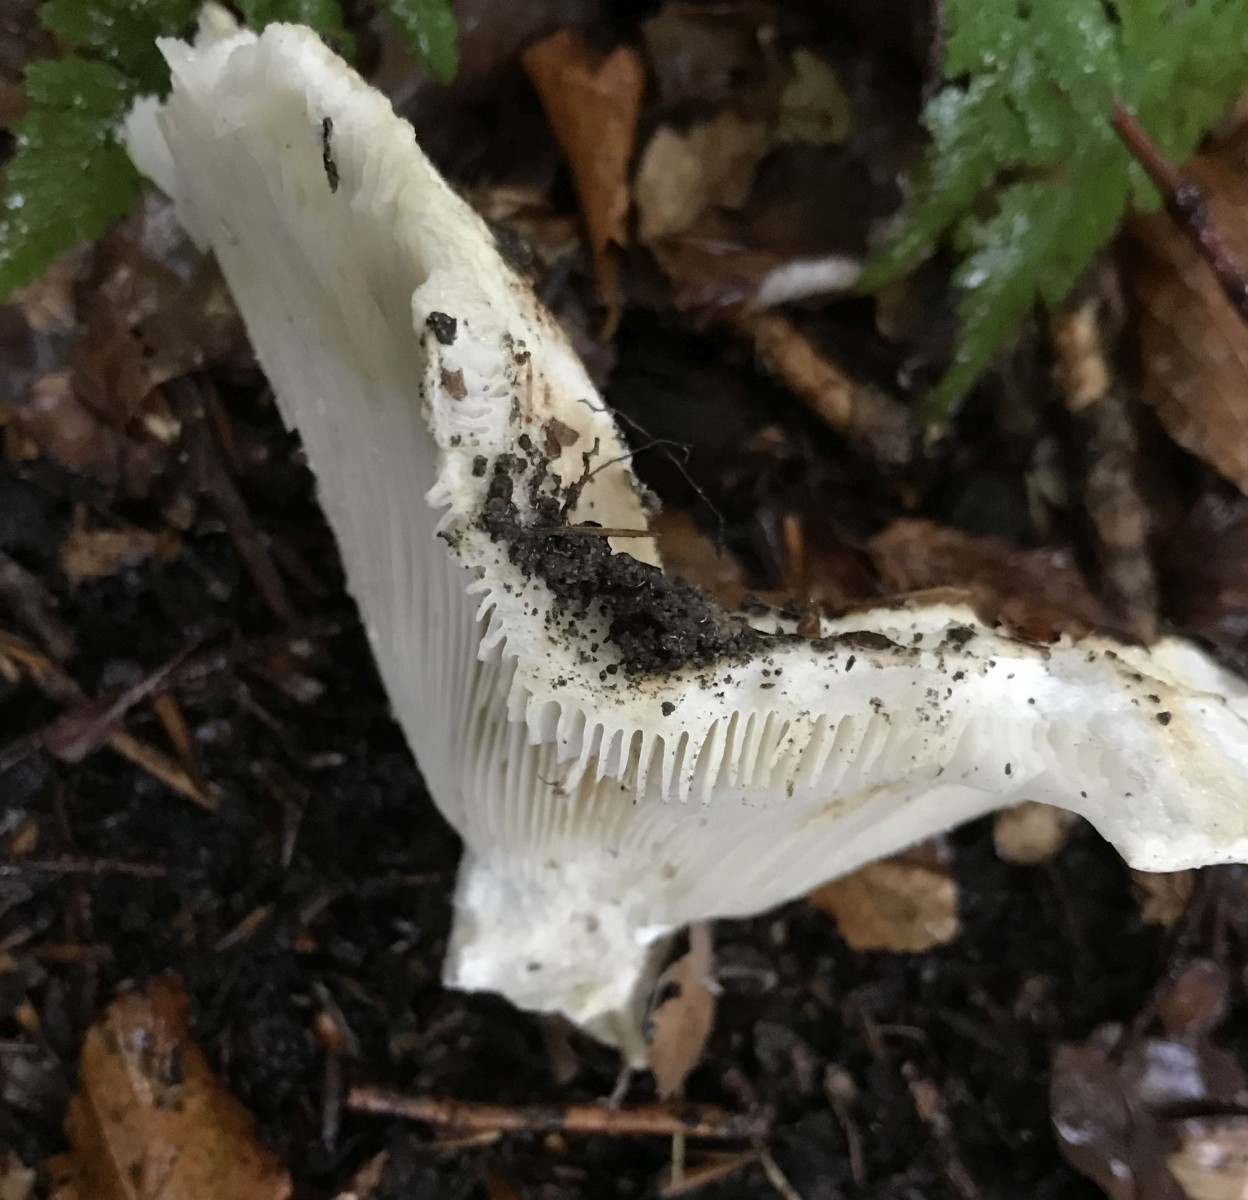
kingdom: Fungi
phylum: Basidiomycota
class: Agaricomycetes
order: Russulales
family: Russulaceae
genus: Russula
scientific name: Russula
